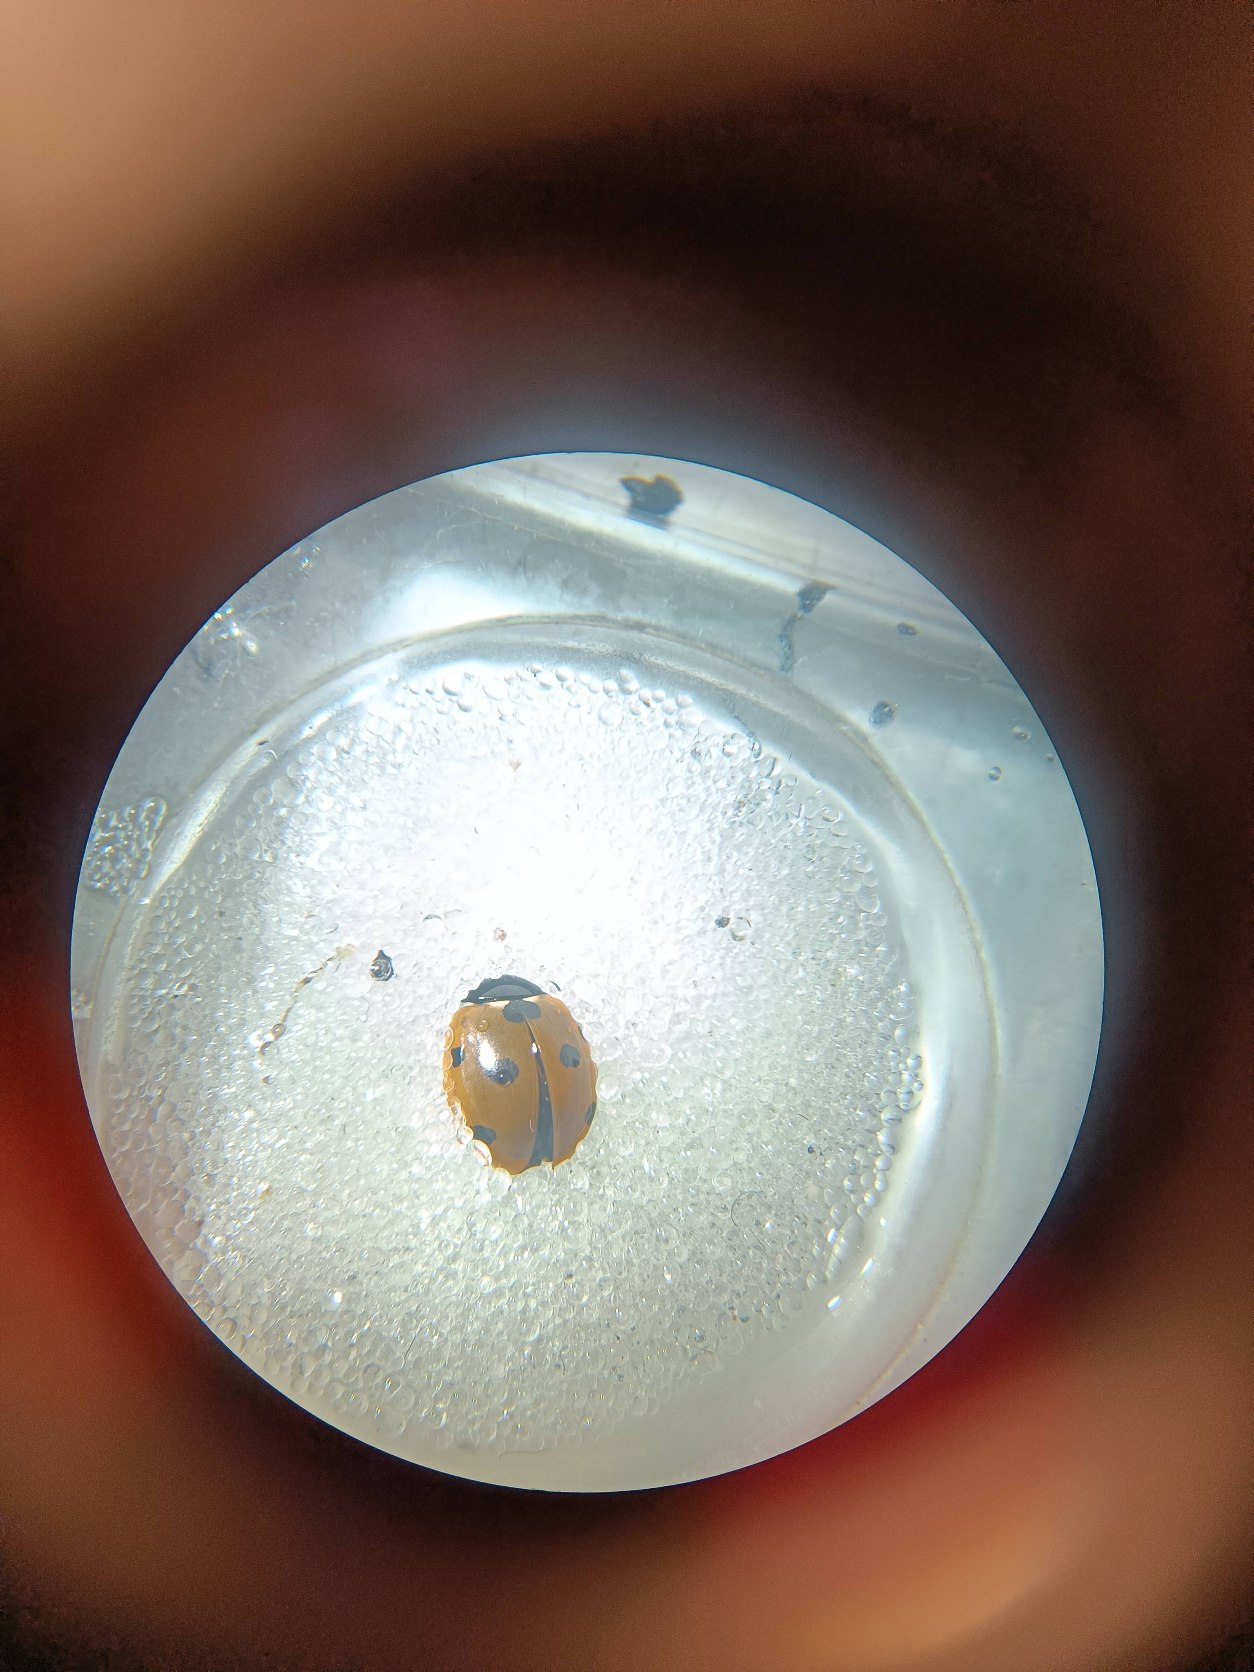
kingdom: Animalia
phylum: Arthropoda
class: Insecta
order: Coleoptera
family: Coccinellidae
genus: Coccinella
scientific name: Coccinella septempunctata
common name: Syvplettet mariehøne
